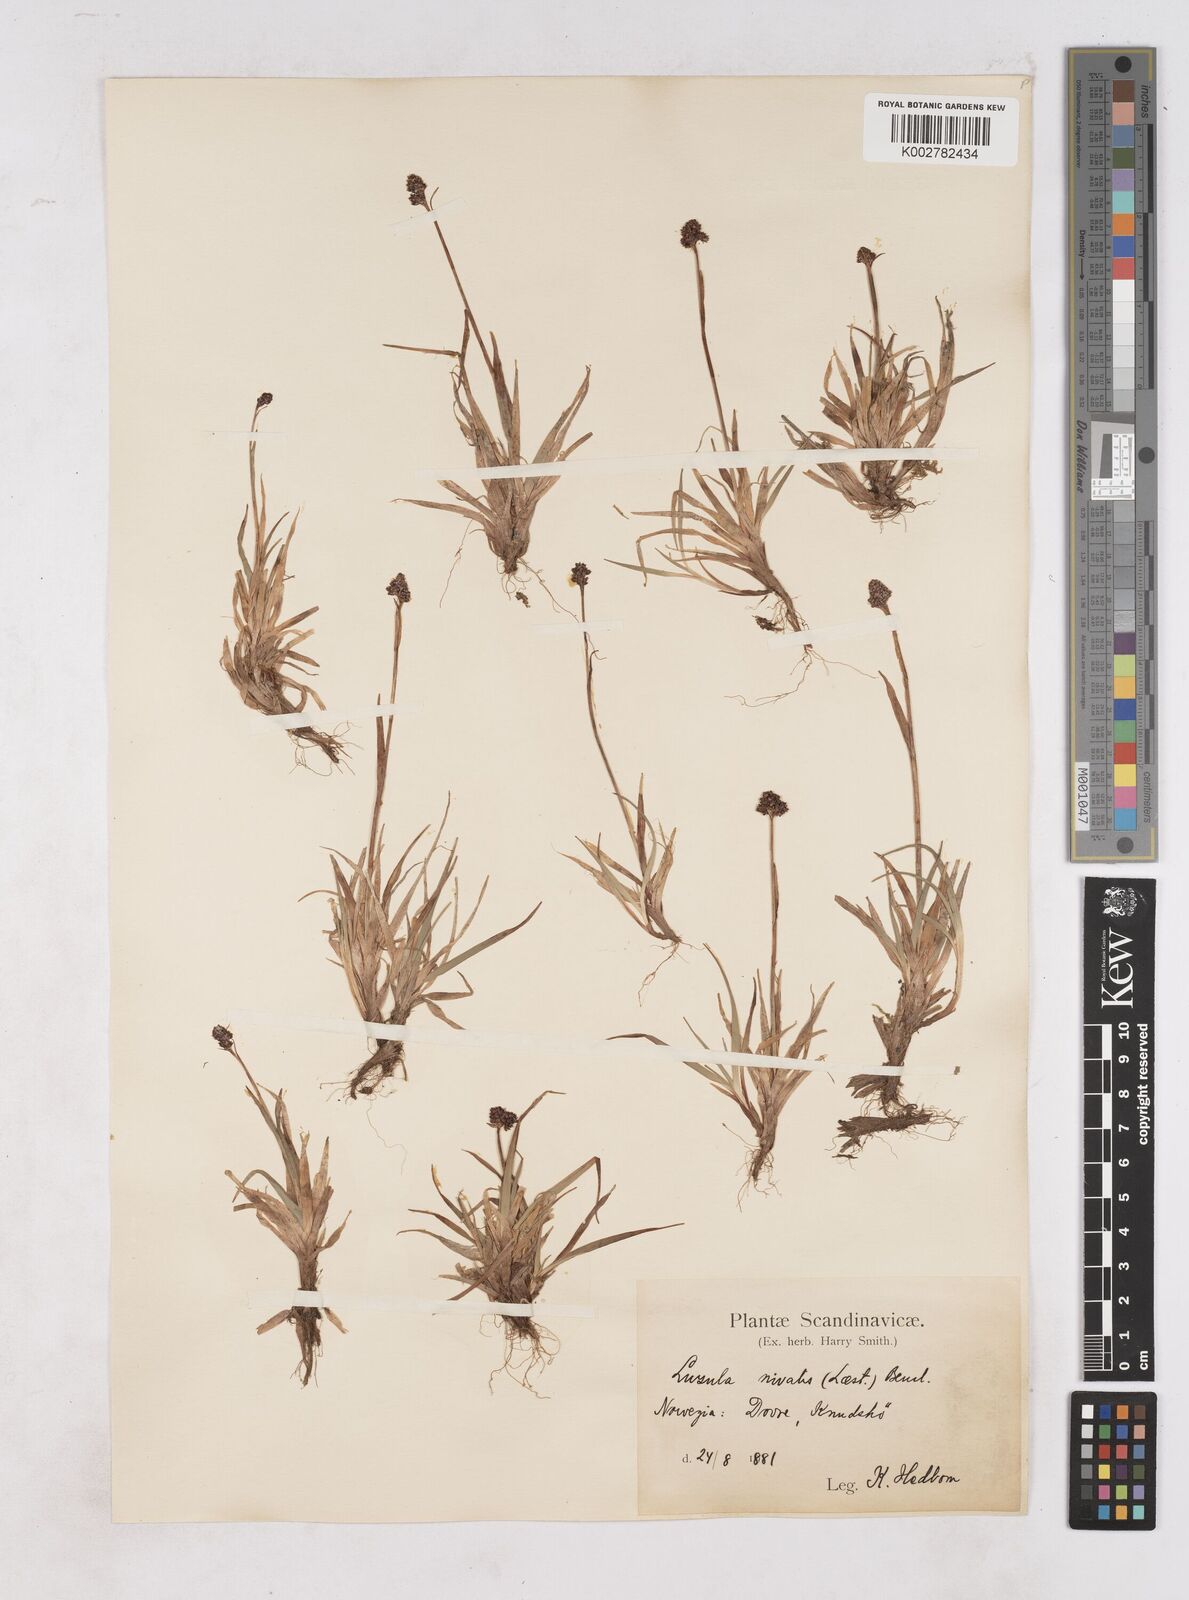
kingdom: Plantae
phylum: Tracheophyta
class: Liliopsida
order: Poales
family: Juncaceae
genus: Luzula
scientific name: Luzula nivalis
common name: Arctic woodrush
